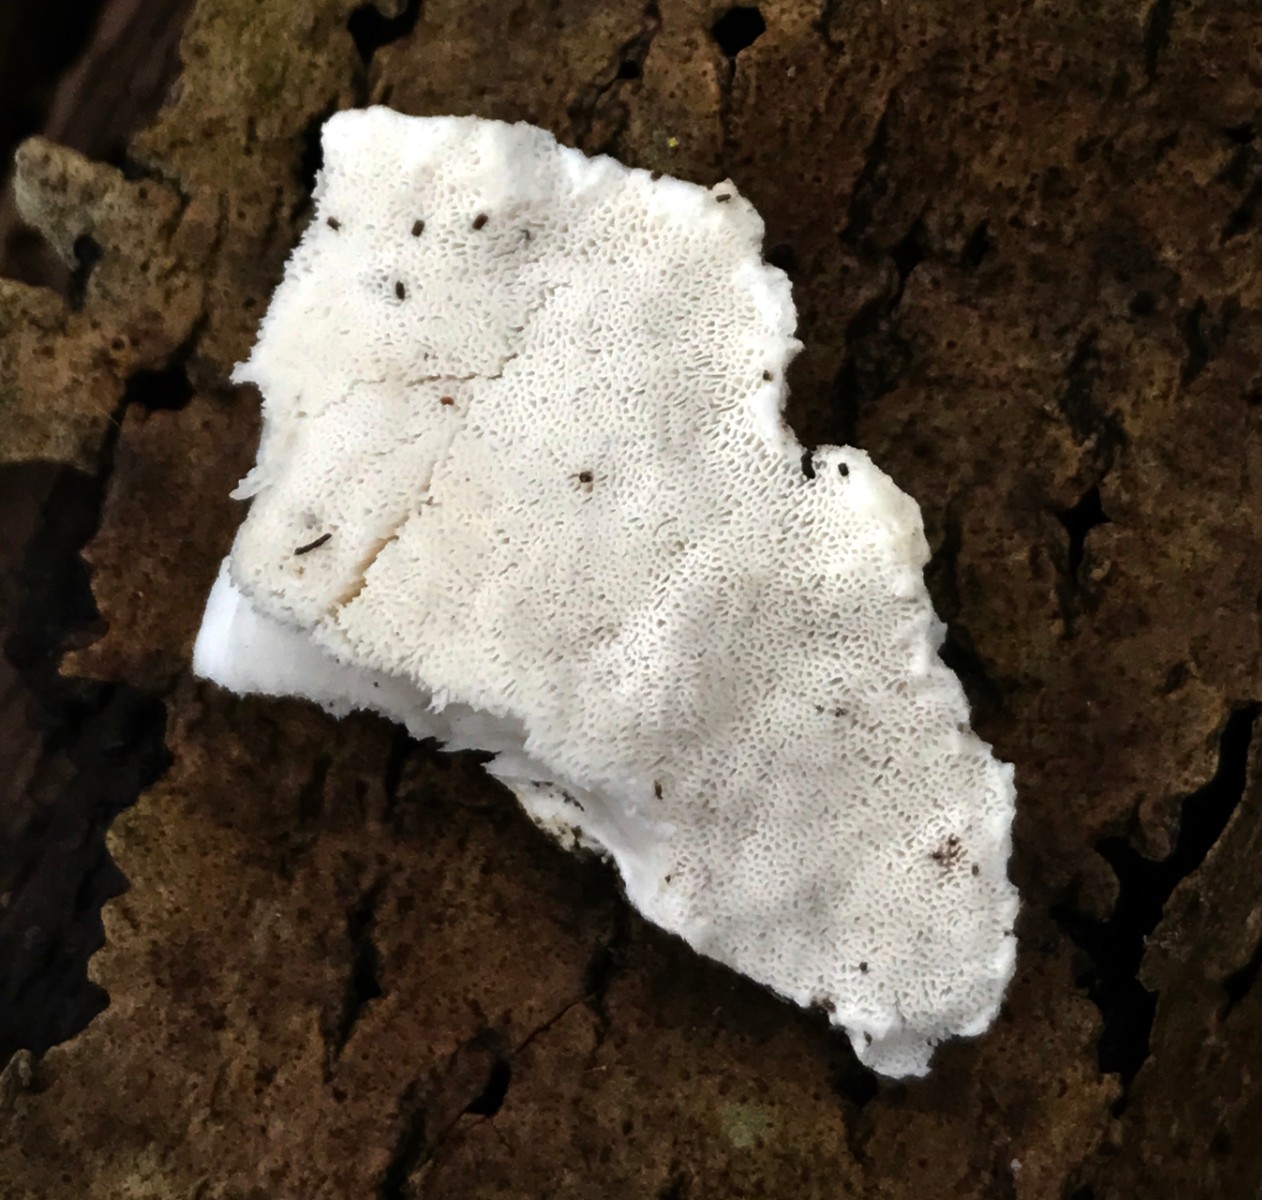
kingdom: Fungi
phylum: Basidiomycota
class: Agaricomycetes
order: Polyporales
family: Incrustoporiaceae
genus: Tyromyces
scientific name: Tyromyces lacteus
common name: mælkehvid kødporesvamp
